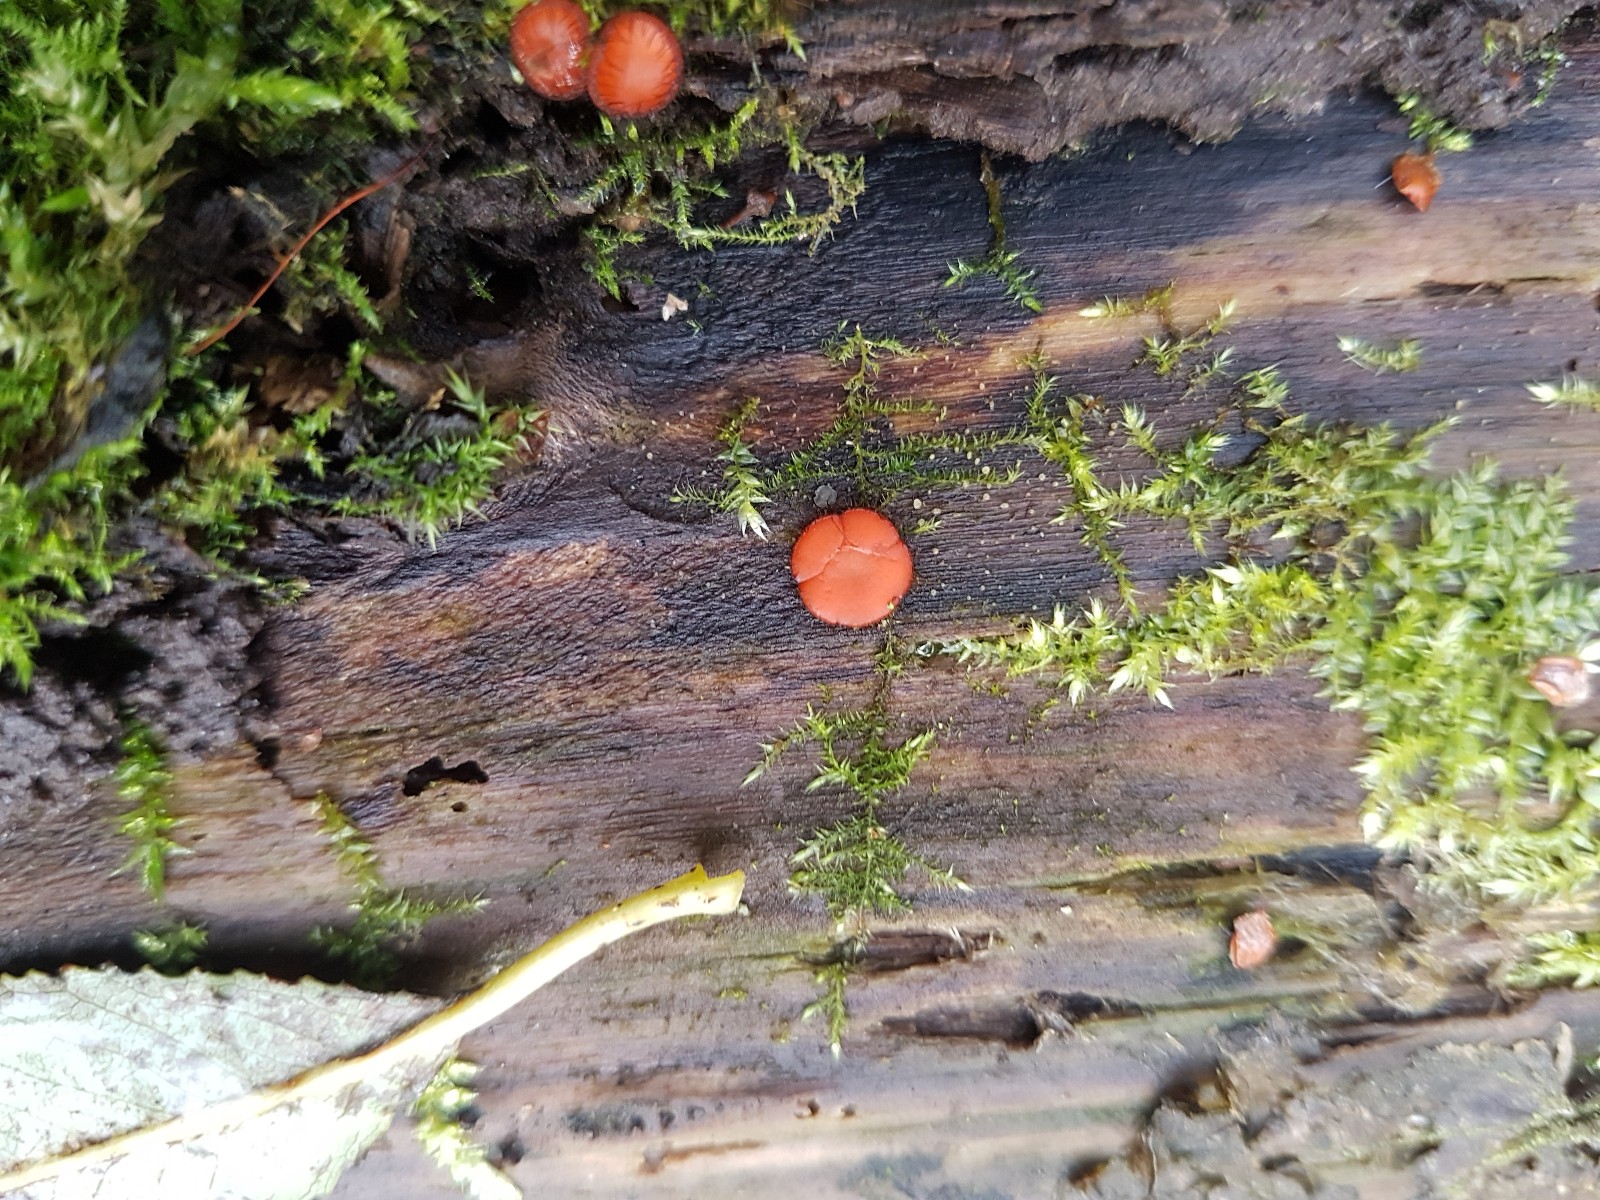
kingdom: Fungi
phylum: Ascomycota
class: Pezizomycetes
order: Pezizales
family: Pyronemataceae
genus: Scutellinia
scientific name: Scutellinia scutellata
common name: frynset skjoldbæger
